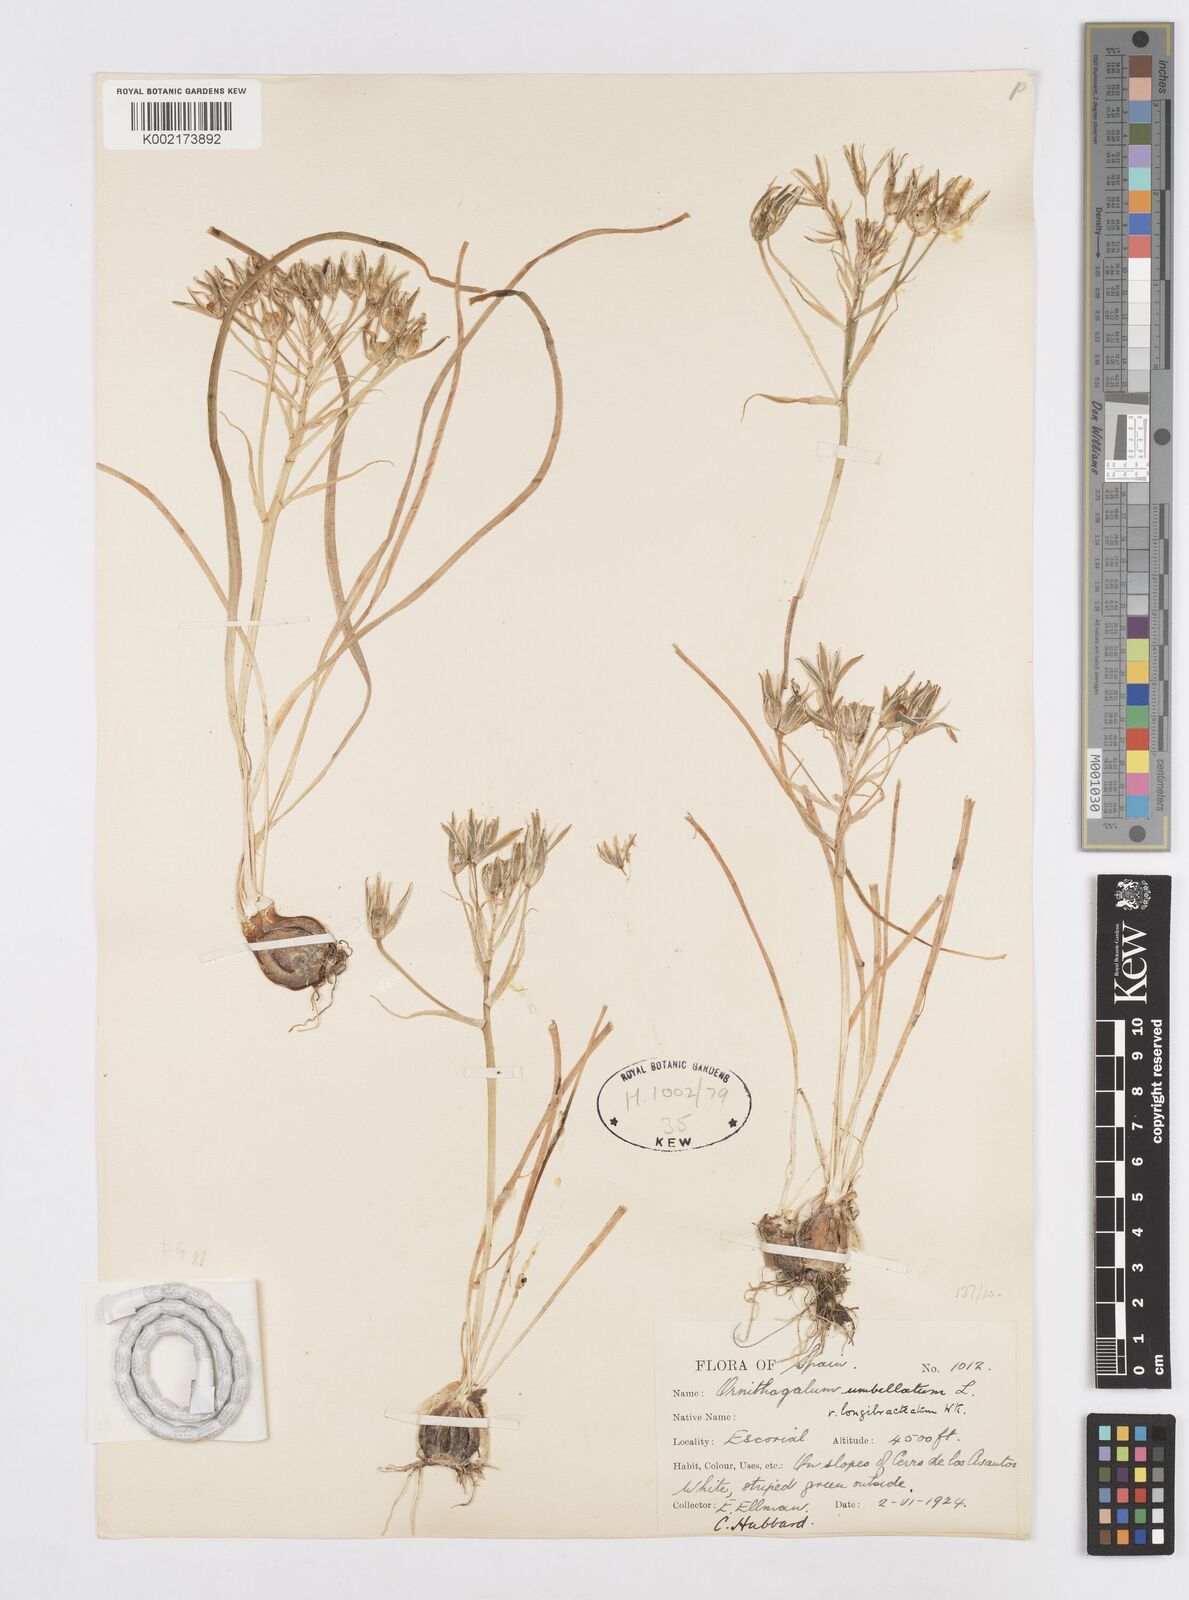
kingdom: Plantae
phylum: Tracheophyta
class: Liliopsida
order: Asparagales
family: Asparagaceae
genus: Ornithogalum
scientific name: Ornithogalum orthophyllum
